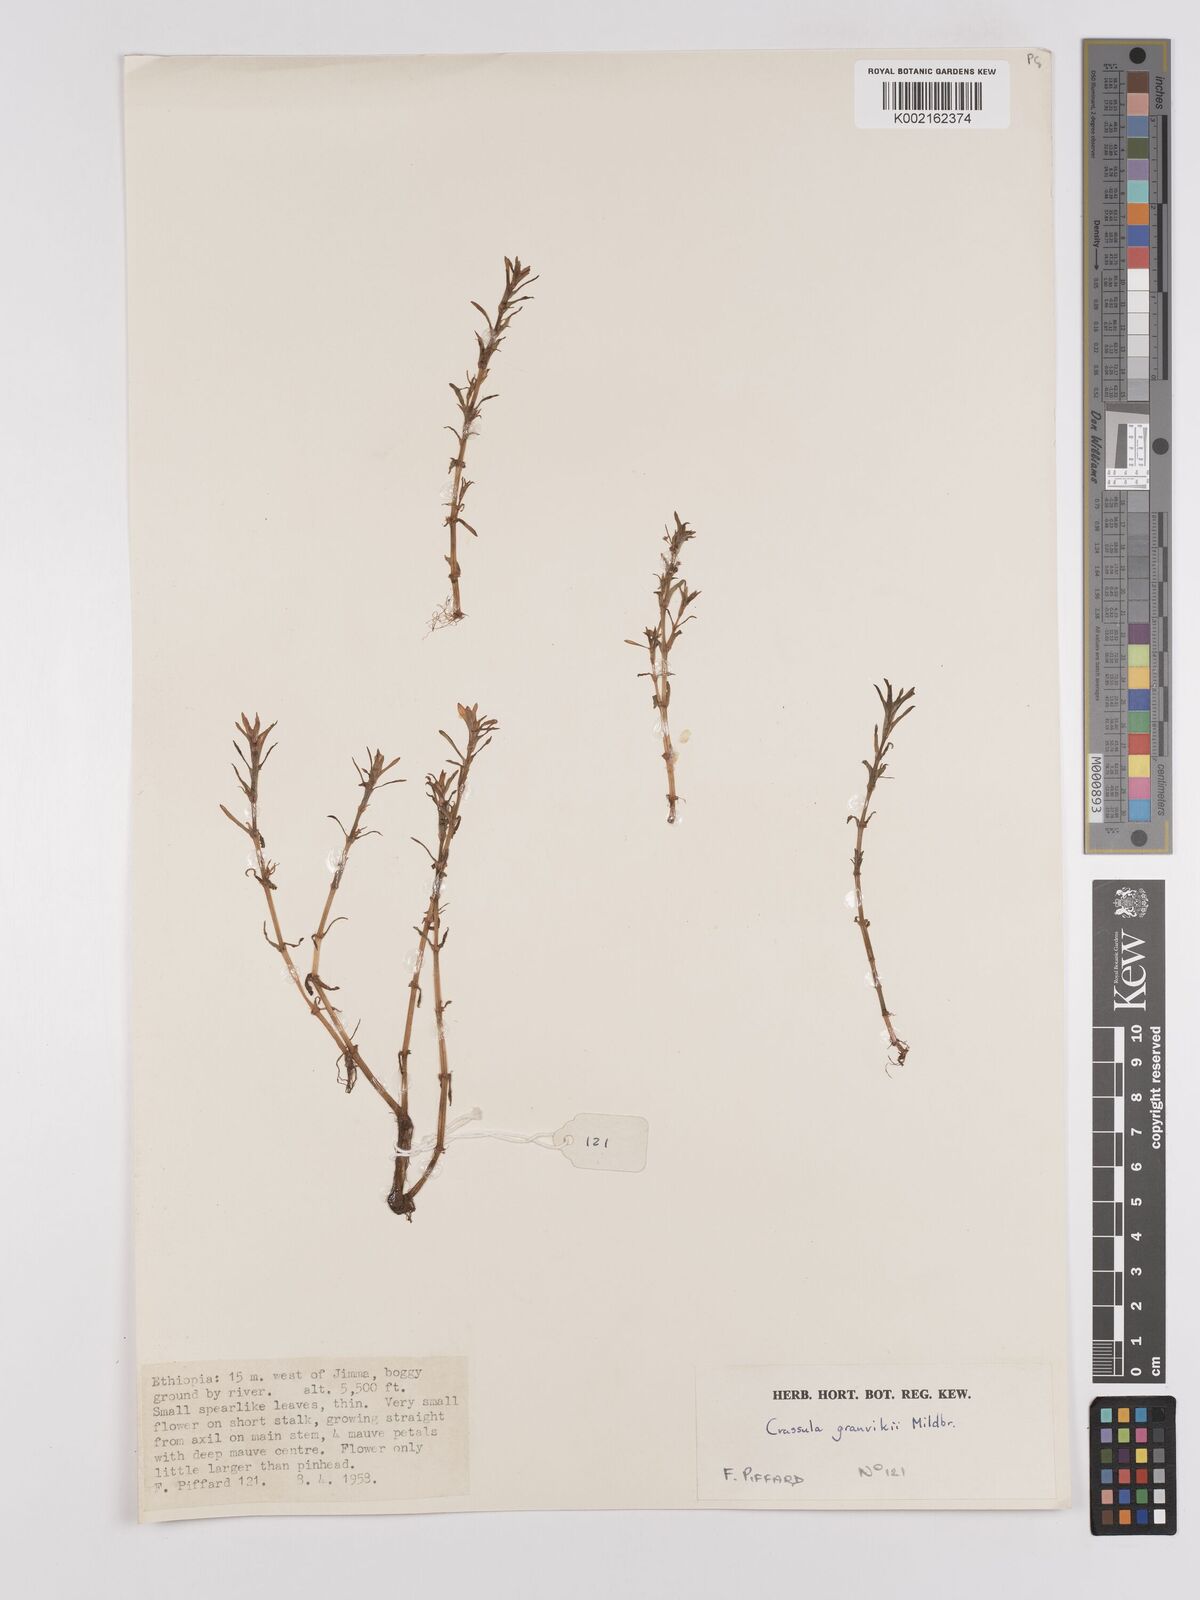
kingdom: Plantae
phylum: Tracheophyta
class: Magnoliopsida
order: Saxifragales
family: Crassulaceae
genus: Crassula
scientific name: Crassula granvikii
